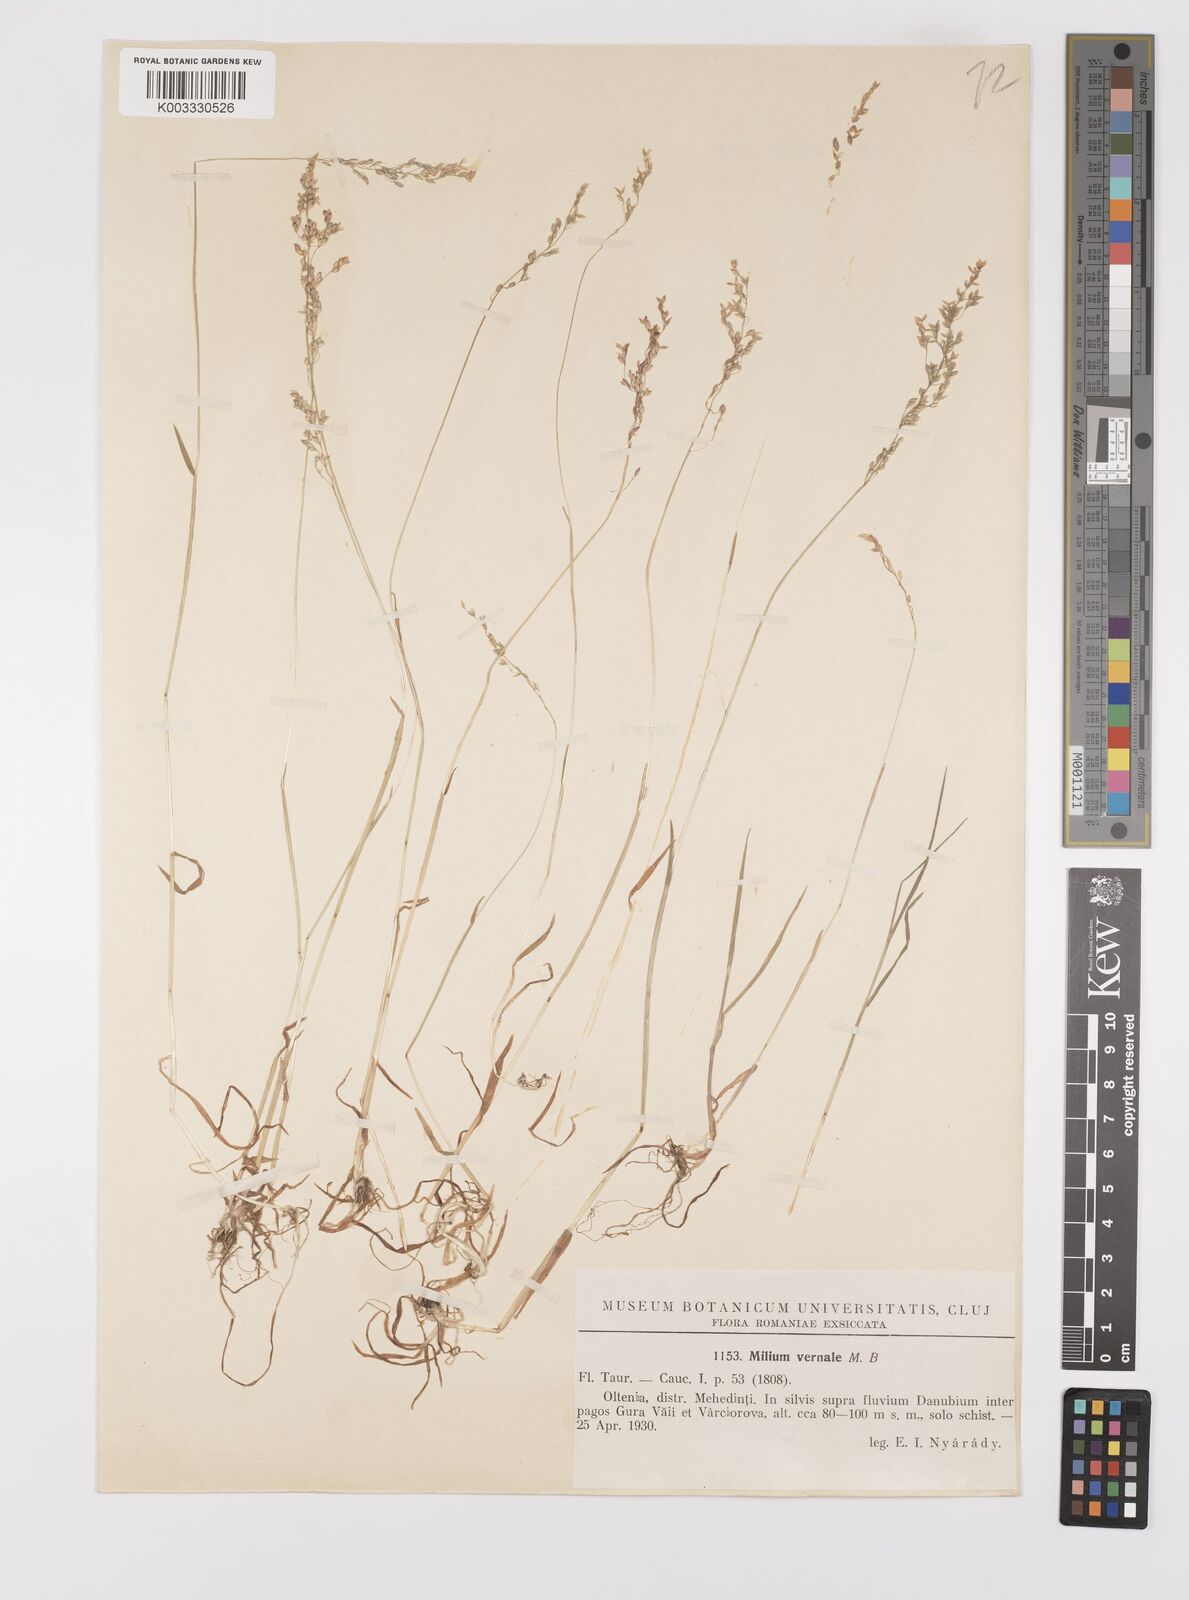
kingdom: Plantae
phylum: Tracheophyta
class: Liliopsida
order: Poales
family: Poaceae
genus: Milium
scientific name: Milium vernale
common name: Early millet
